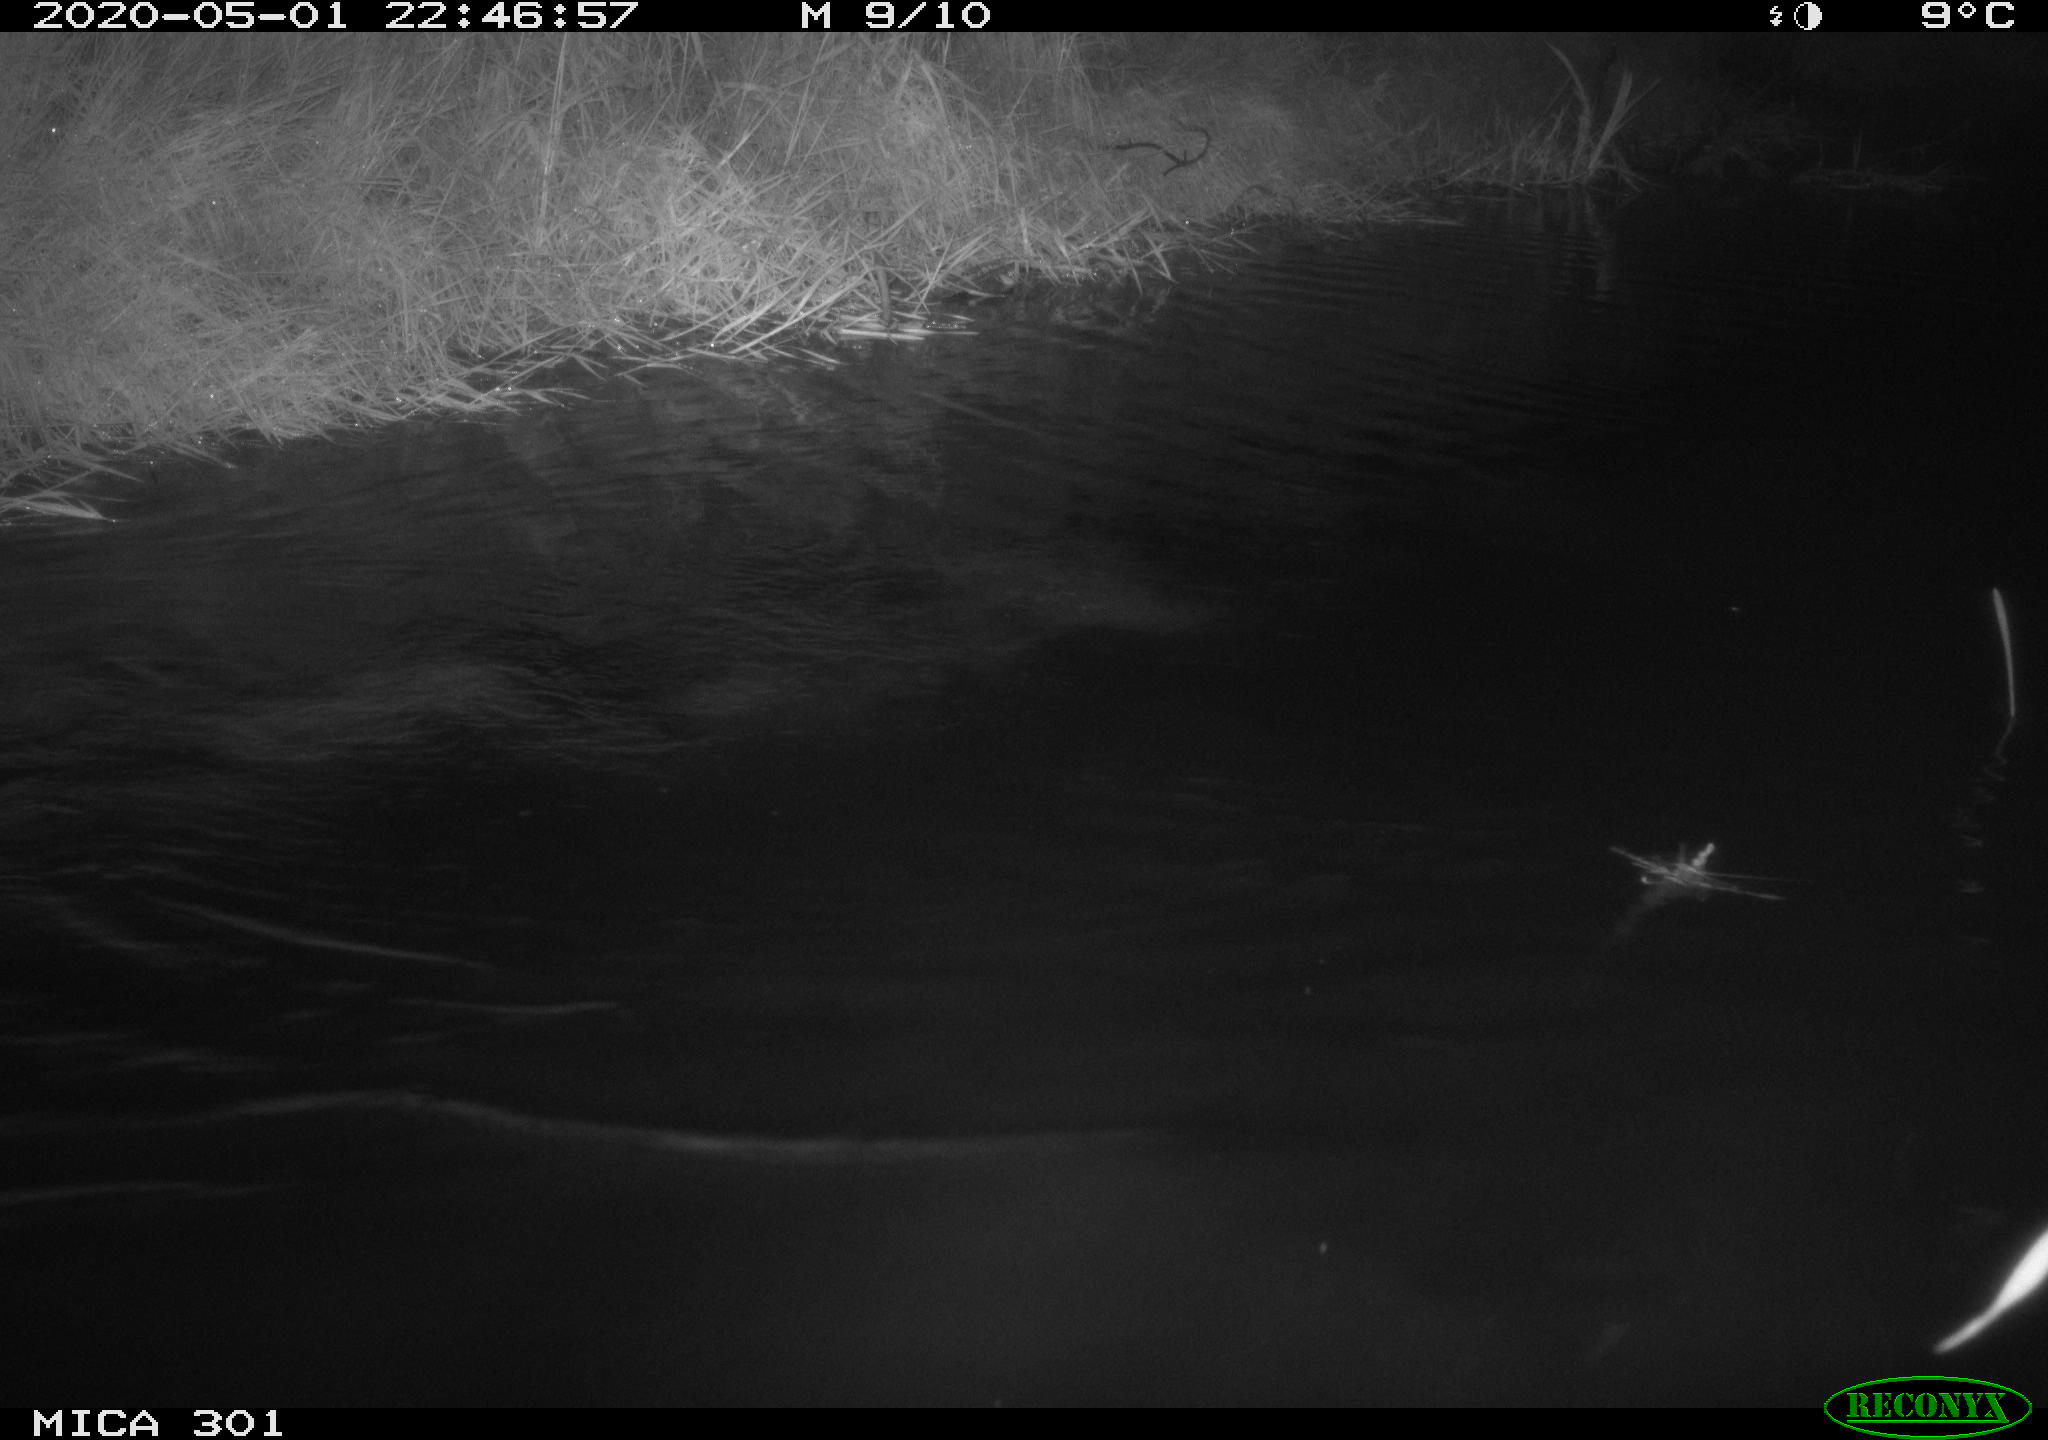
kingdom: Animalia
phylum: Chordata
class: Mammalia
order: Rodentia
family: Castoridae
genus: Castor
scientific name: Castor fiber
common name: Eurasian beaver
